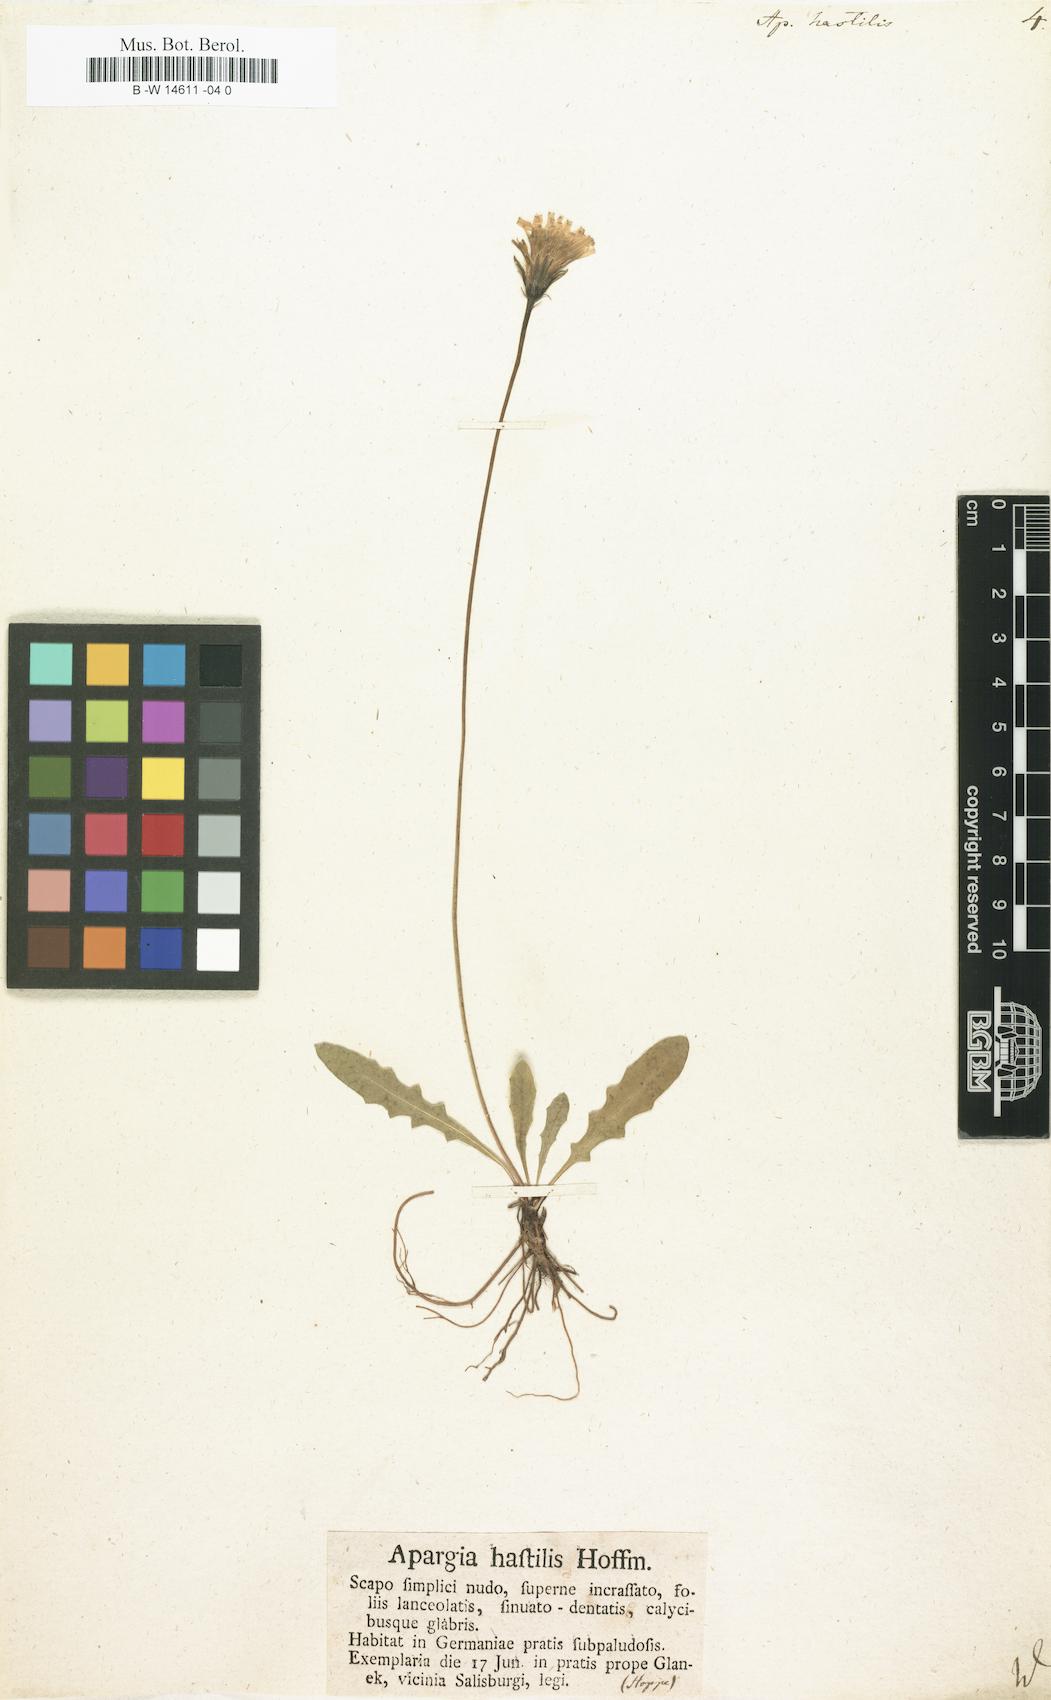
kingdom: Plantae
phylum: Tracheophyta
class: Magnoliopsida
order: Asterales
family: Asteraceae
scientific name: Asteraceae
